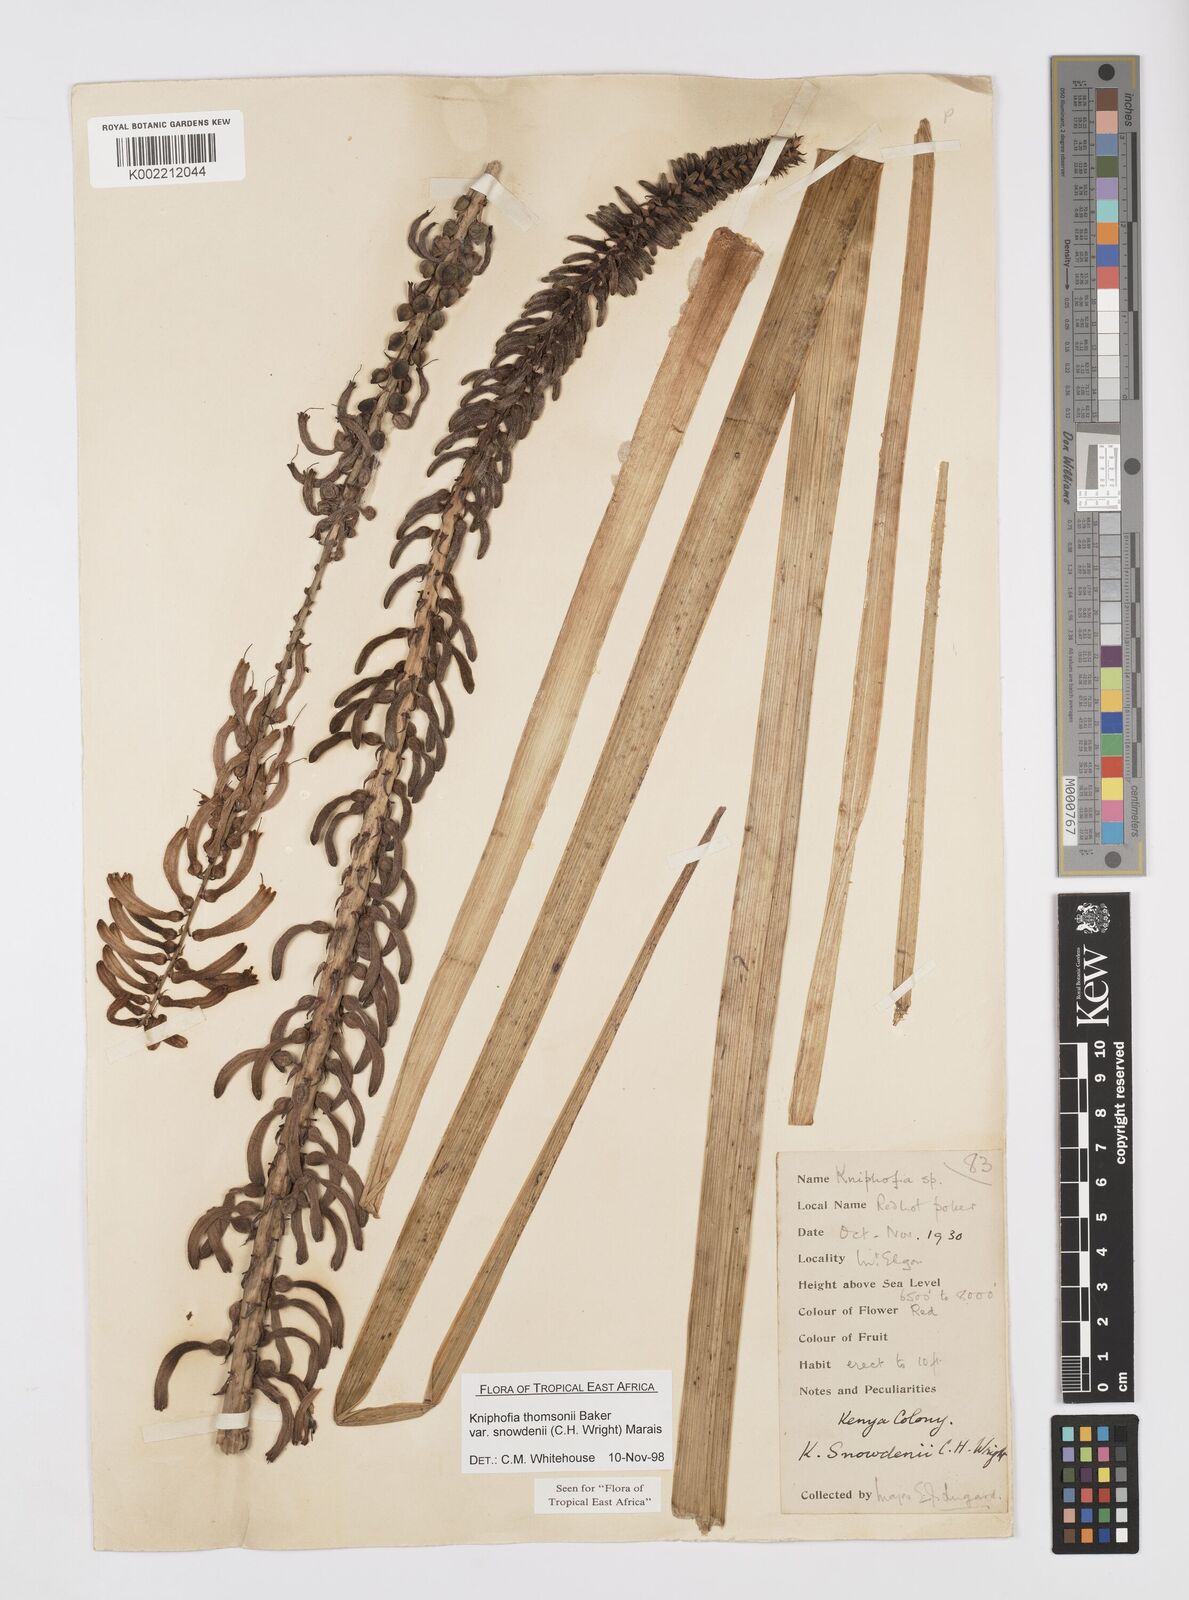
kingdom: Plantae
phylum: Tracheophyta
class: Liliopsida
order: Asparagales
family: Asphodelaceae
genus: Kniphofia
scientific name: Kniphofia
